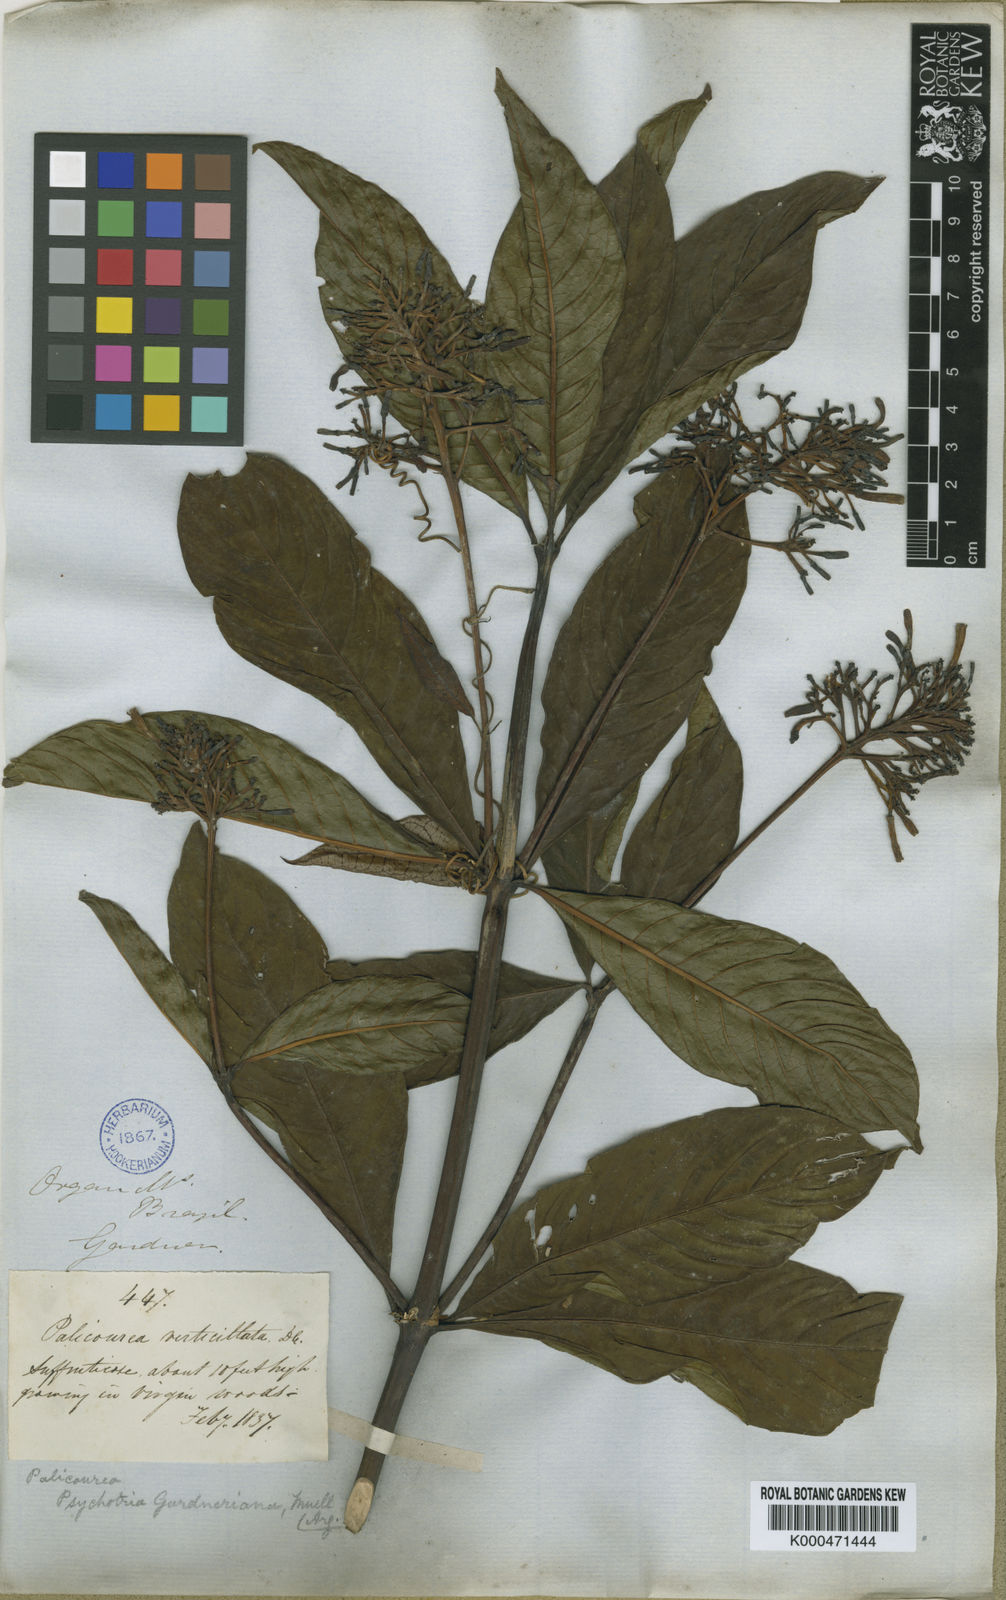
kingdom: Plantae
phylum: Tracheophyta
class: Magnoliopsida
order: Gentianales
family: Rubiaceae
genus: Palicourea
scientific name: Palicourea
